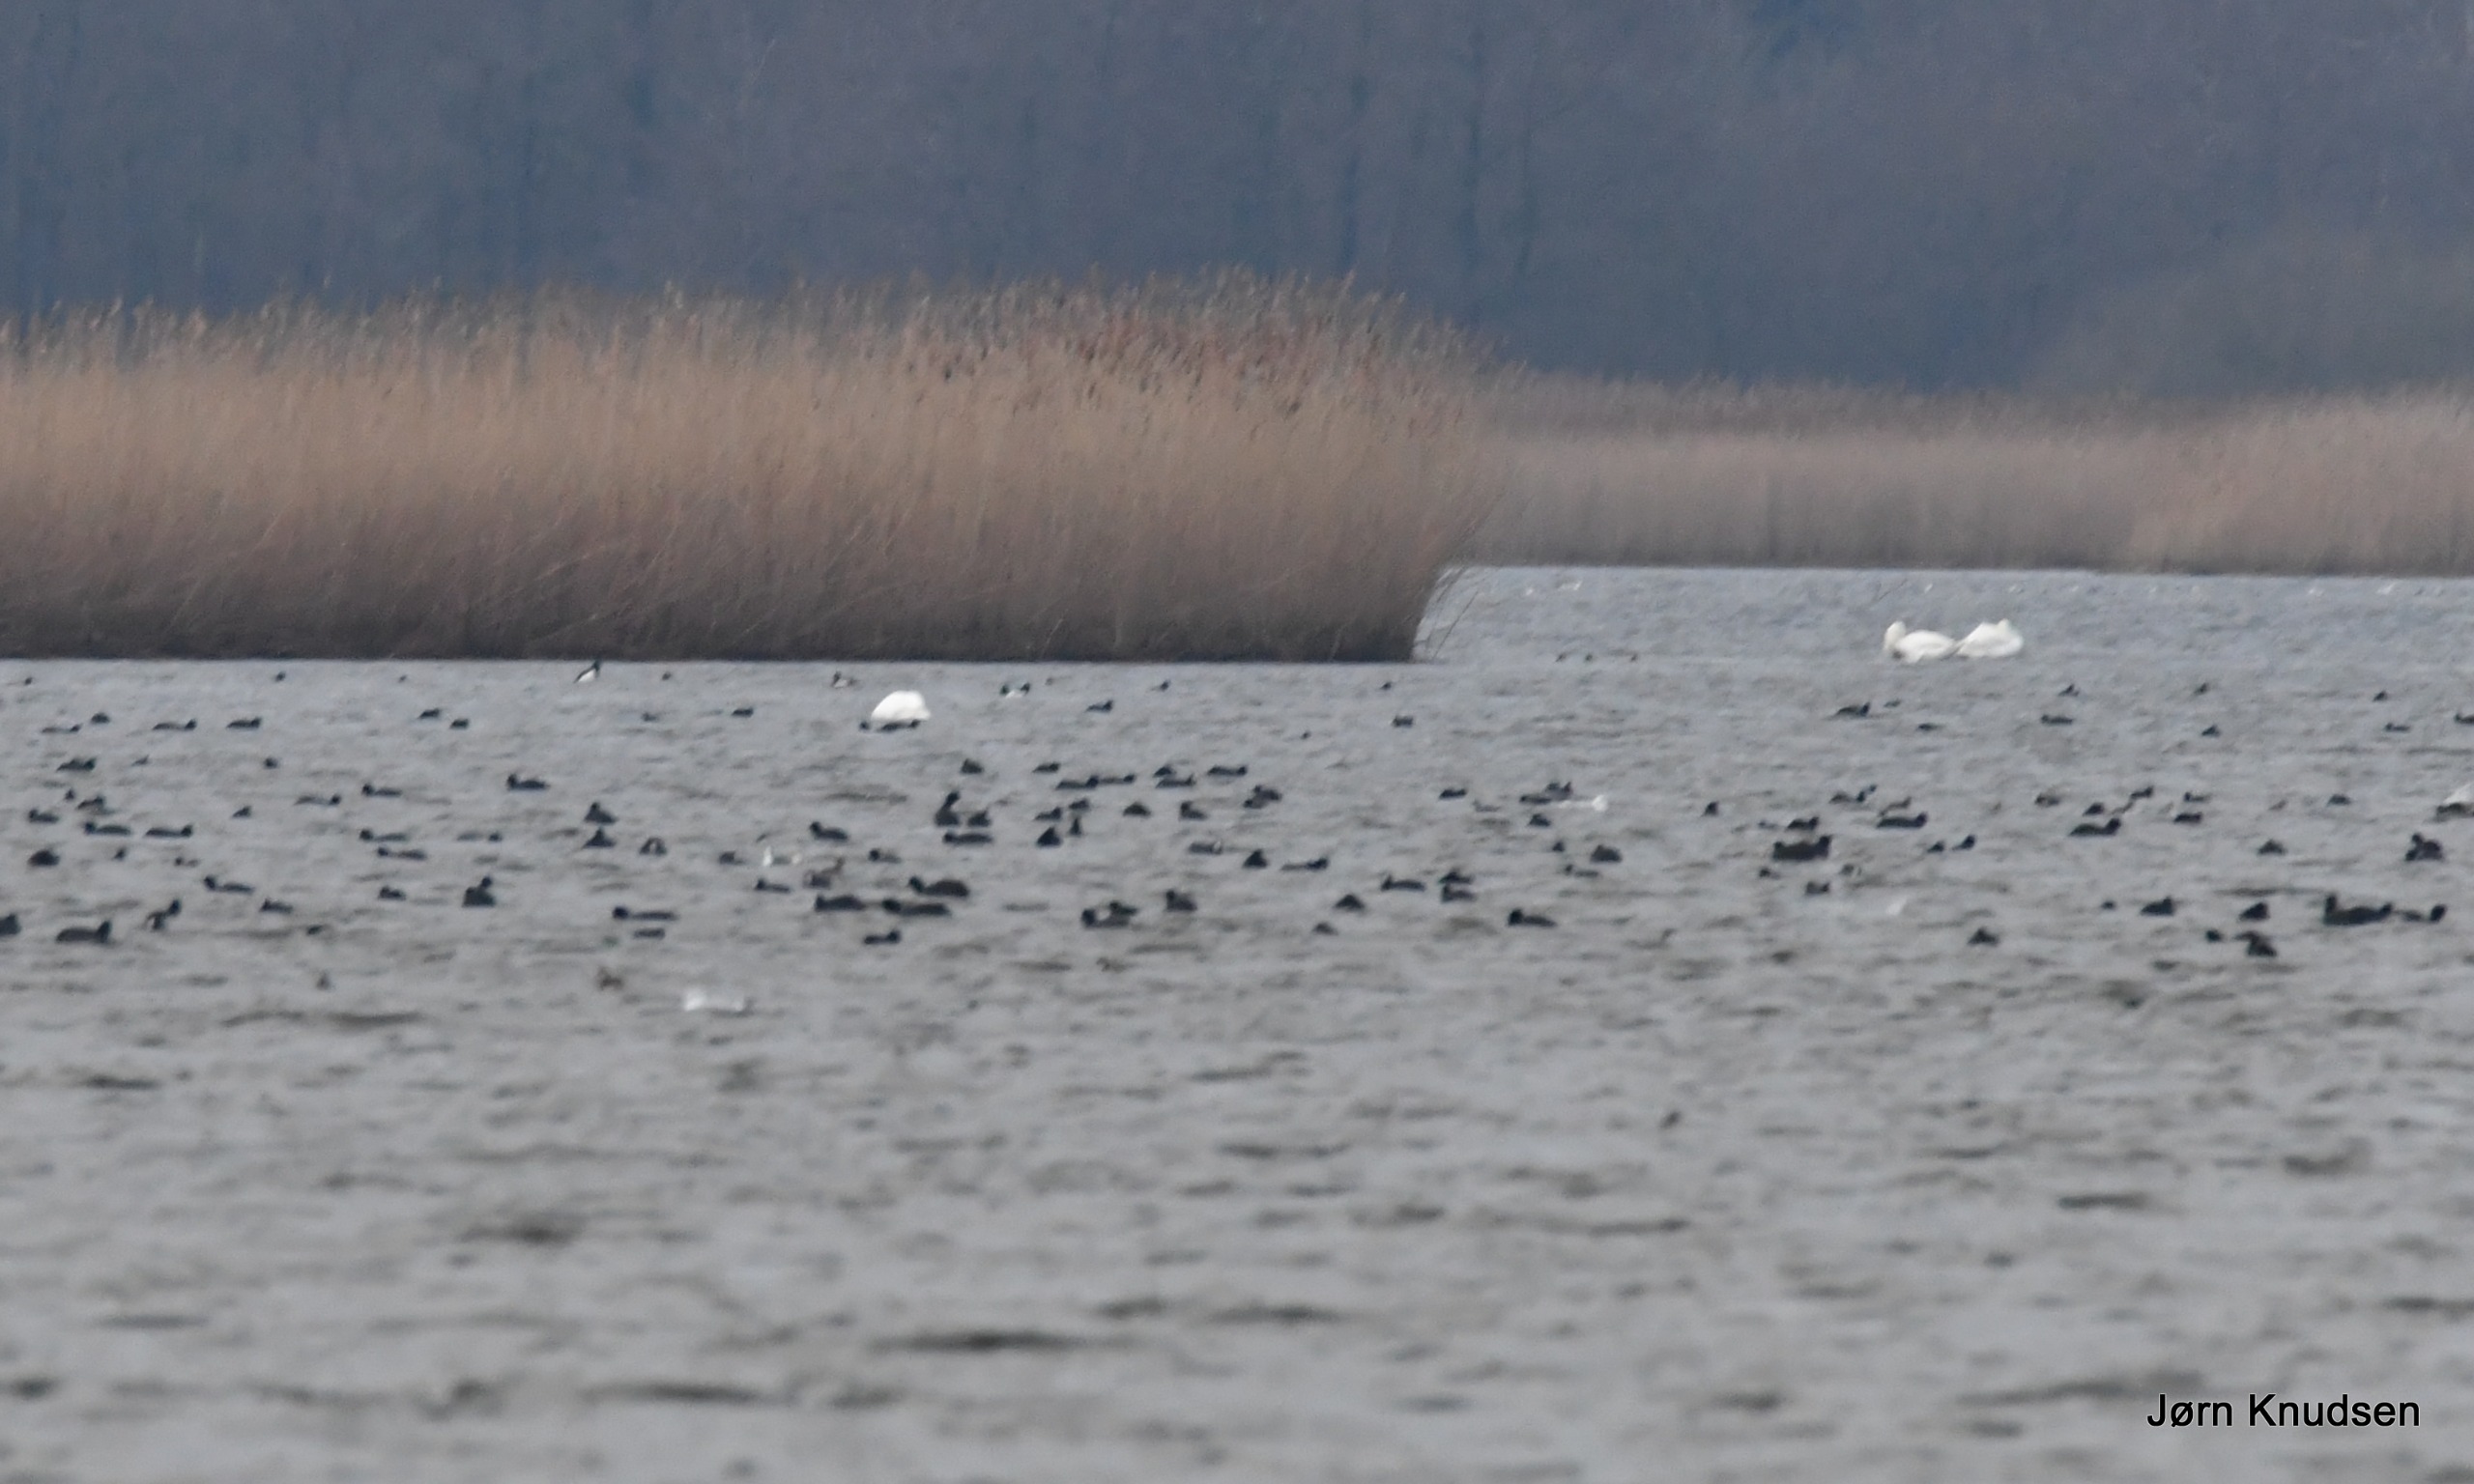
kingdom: Animalia
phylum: Chordata
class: Aves
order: Gruiformes
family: Rallidae
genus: Fulica
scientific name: Fulica atra
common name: Blishøne
